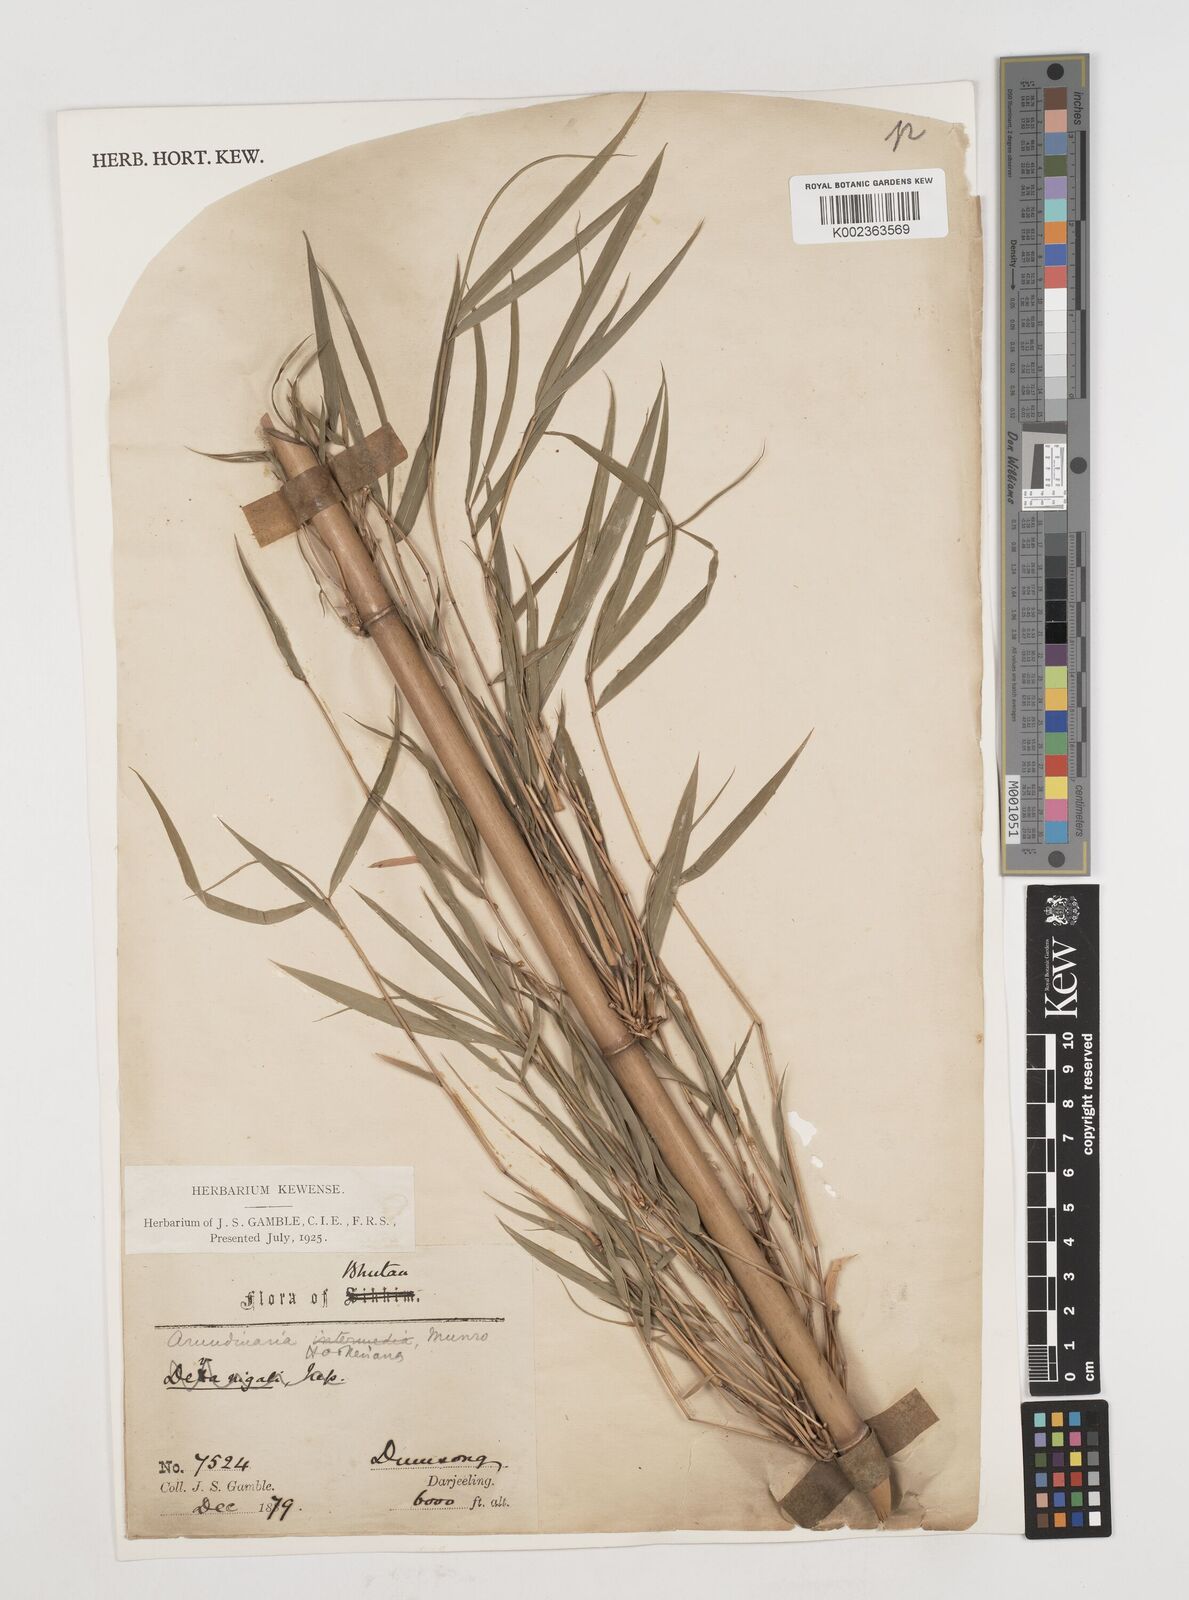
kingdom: Plantae
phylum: Tracheophyta
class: Liliopsida
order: Poales
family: Poaceae
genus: Himalayacalamus
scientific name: Himalayacalamus hookerianus
